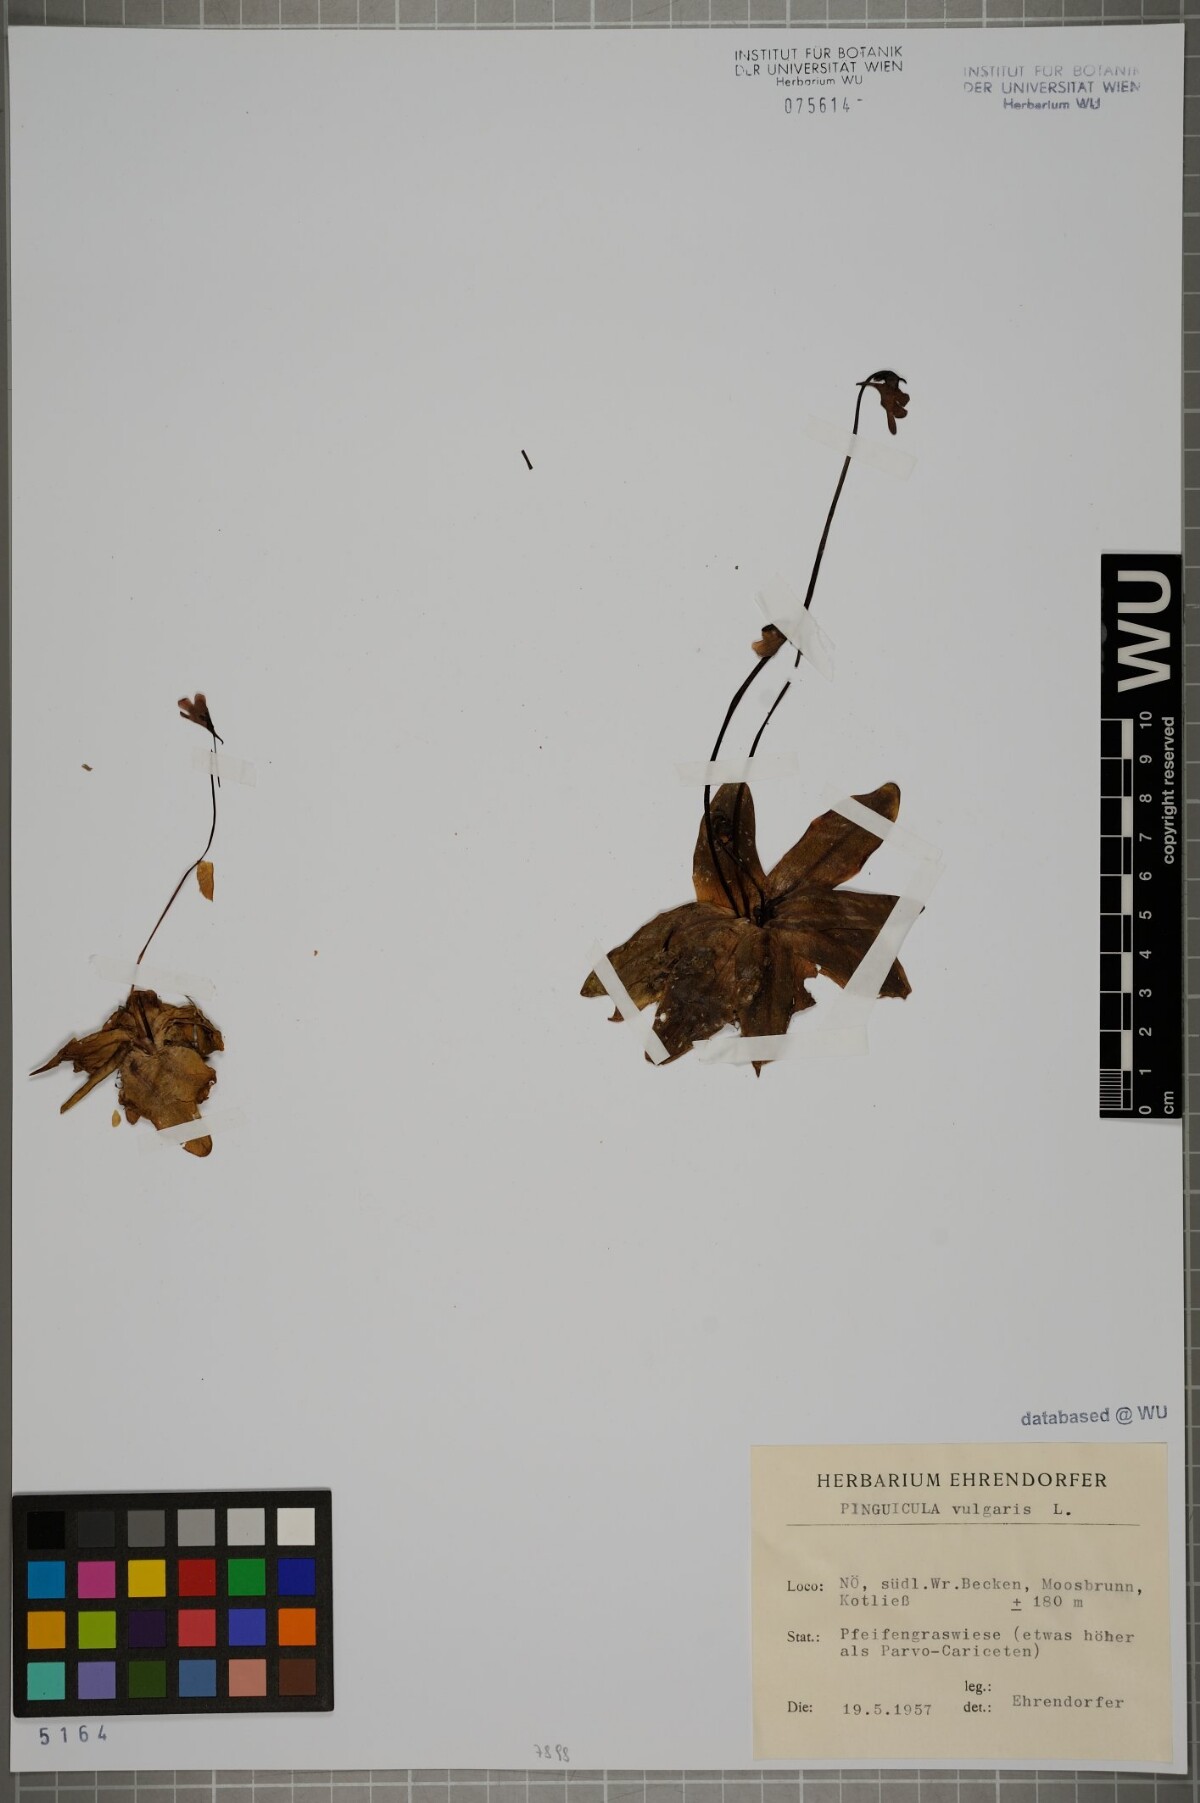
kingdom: Plantae
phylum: Tracheophyta
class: Magnoliopsida
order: Lamiales
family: Lentibulariaceae
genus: Pinguicula
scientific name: Pinguicula vulgaris
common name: Common butterwort
